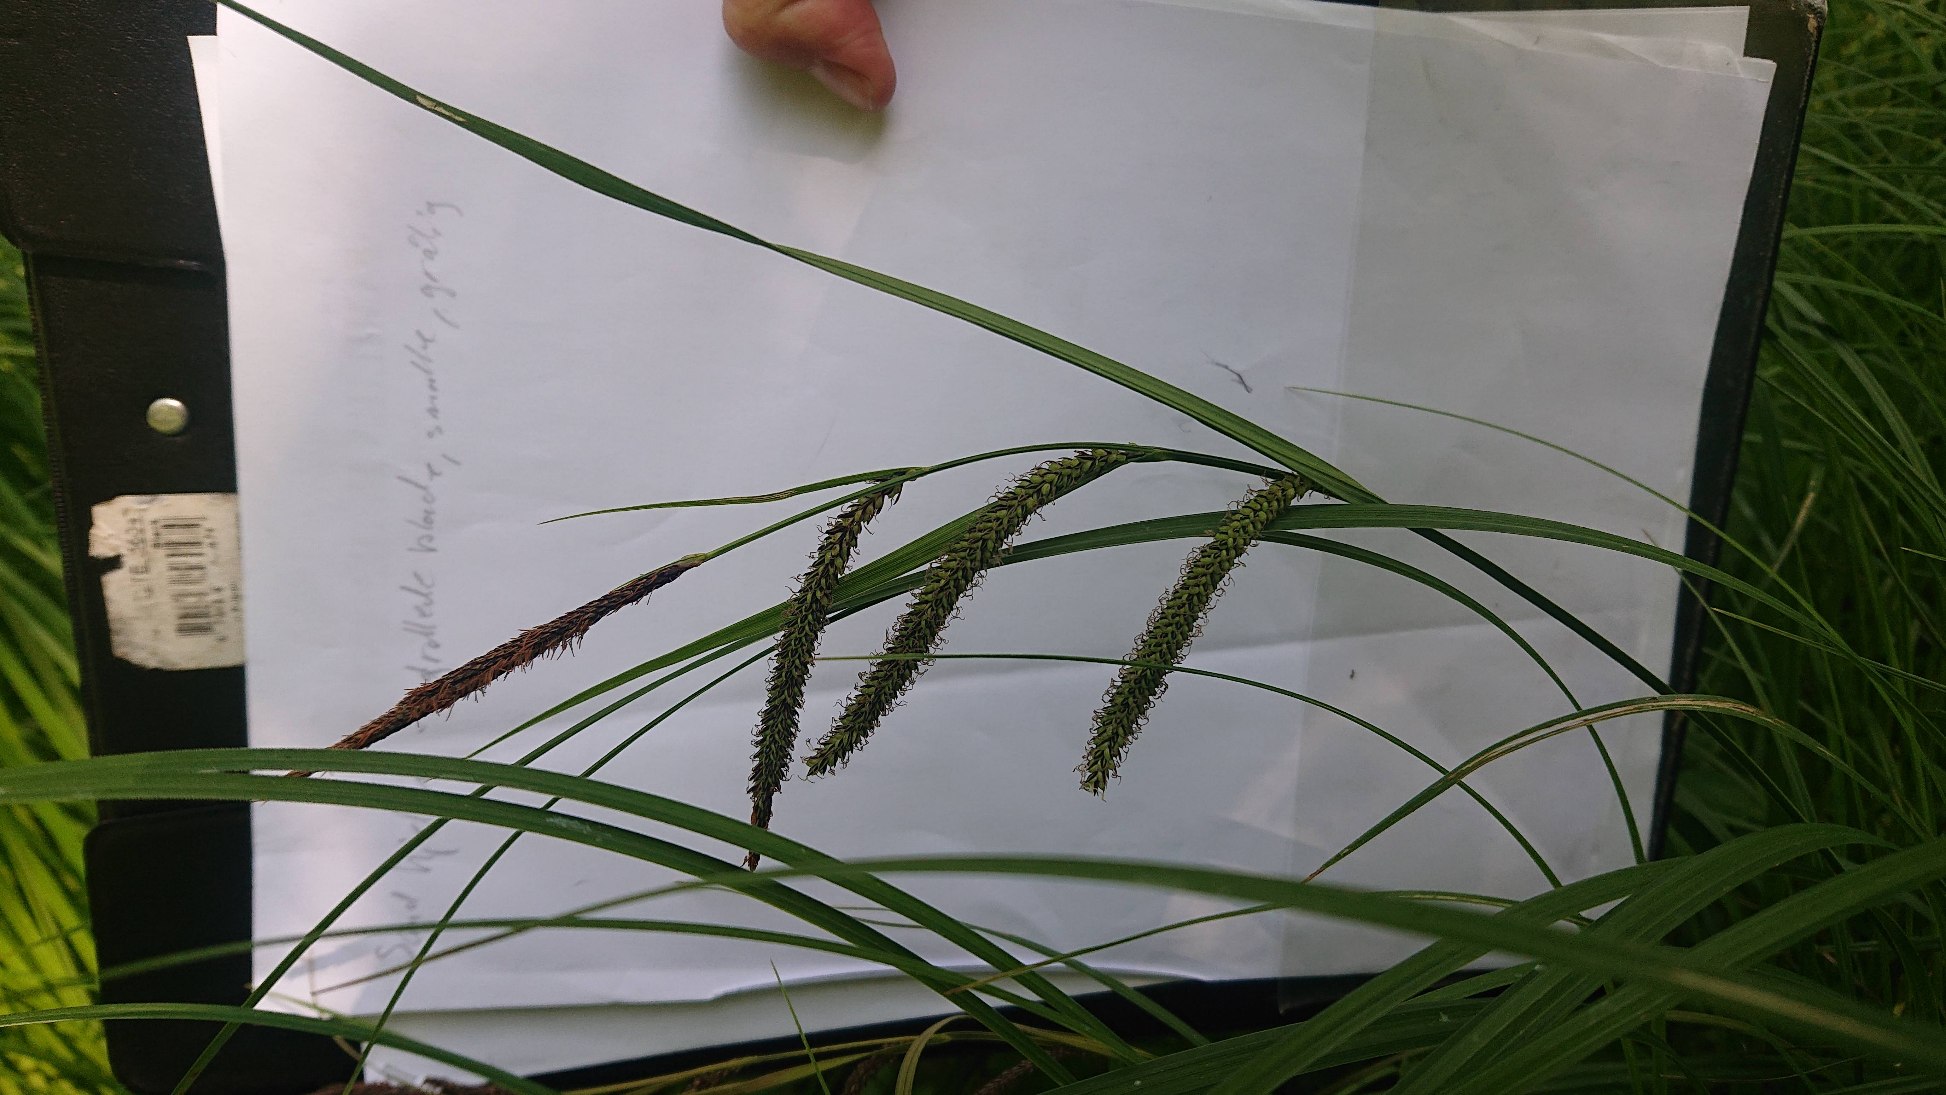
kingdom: Plantae
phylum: Tracheophyta
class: Liliopsida
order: Poales
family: Cyperaceae
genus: Carex
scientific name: Carex acuta
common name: Nikkende star
